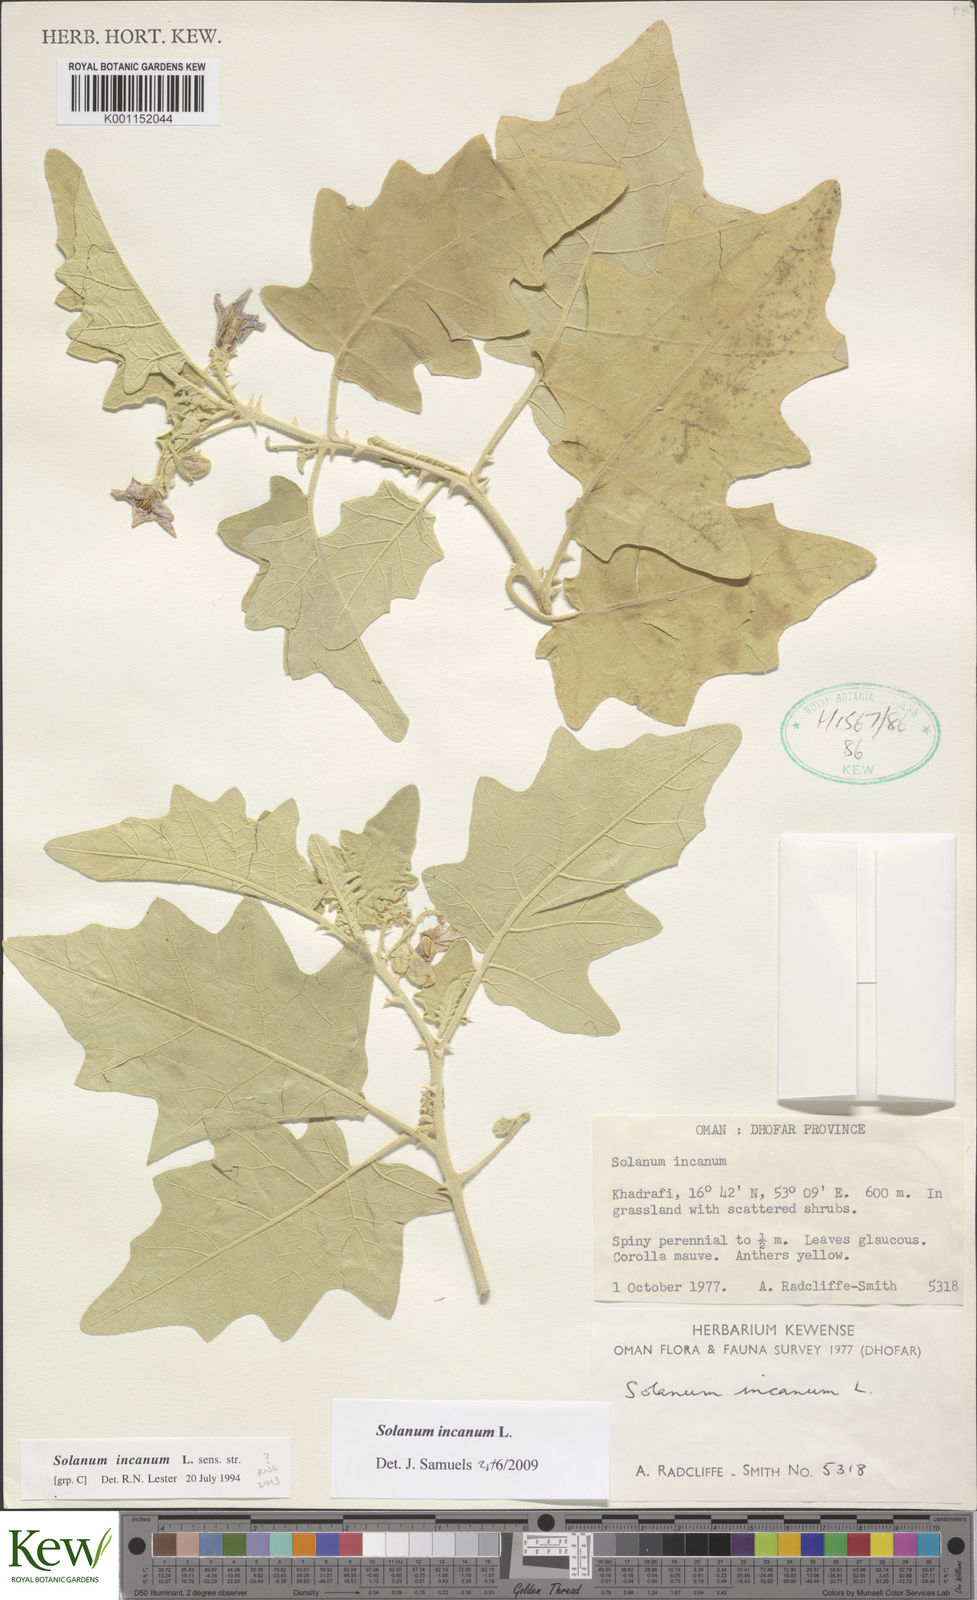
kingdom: Plantae
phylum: Tracheophyta
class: Magnoliopsida
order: Solanales
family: Solanaceae
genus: Solanum
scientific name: Solanum incanum
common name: Bitter apple
